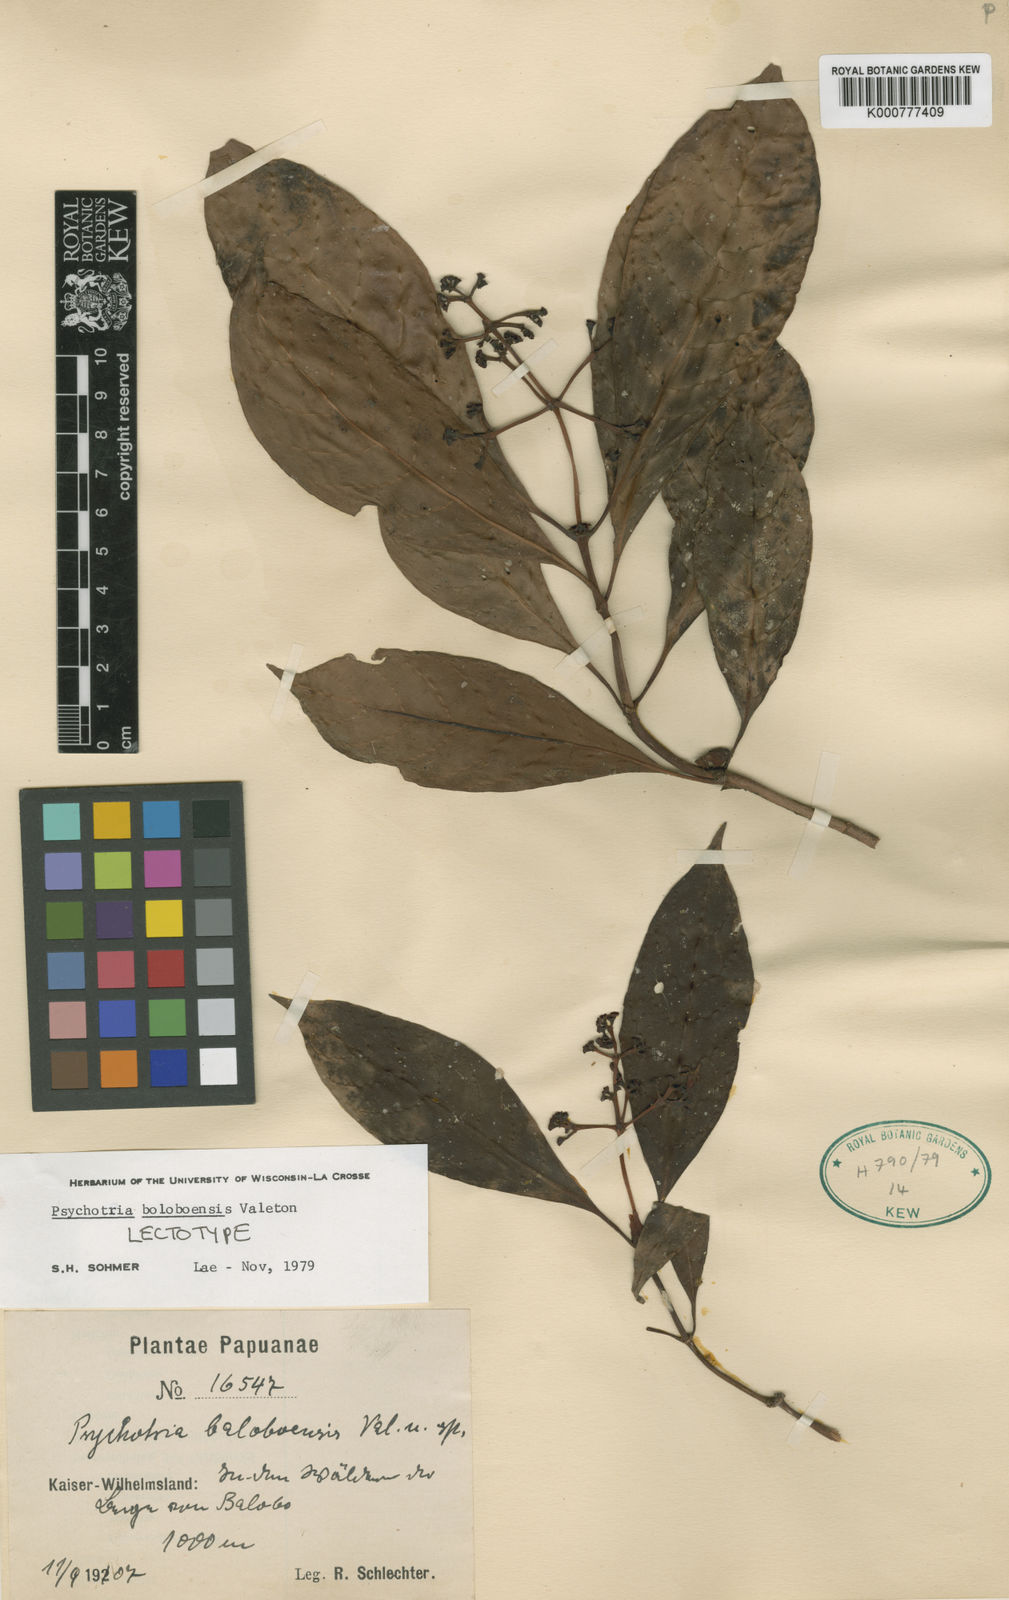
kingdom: Plantae
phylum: Tracheophyta
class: Magnoliopsida
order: Gentianales
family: Rubiaceae
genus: Psychotria
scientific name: Psychotria boloboensis
